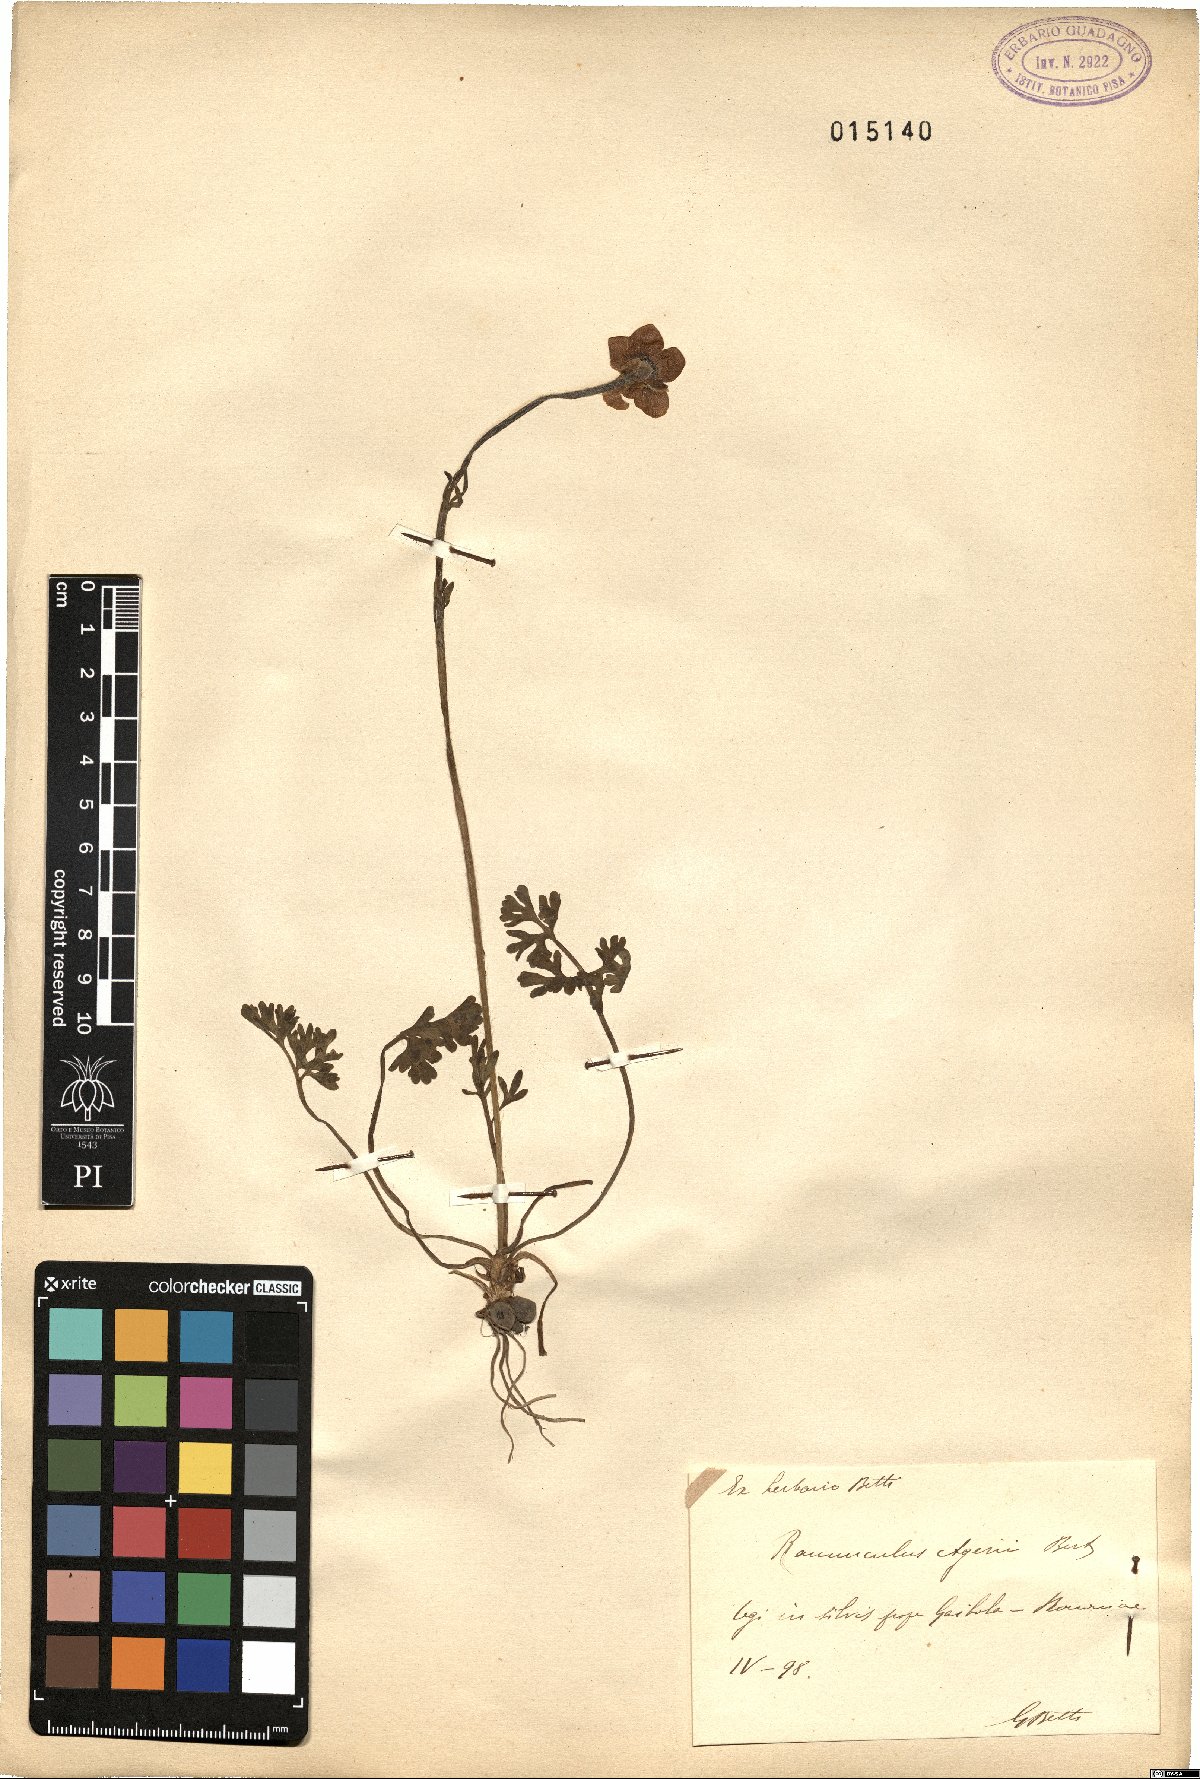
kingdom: Plantae
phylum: Tracheophyta
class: Magnoliopsida
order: Ranunculales
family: Ranunculaceae
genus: Ranunculus
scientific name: Ranunculus gracilis
